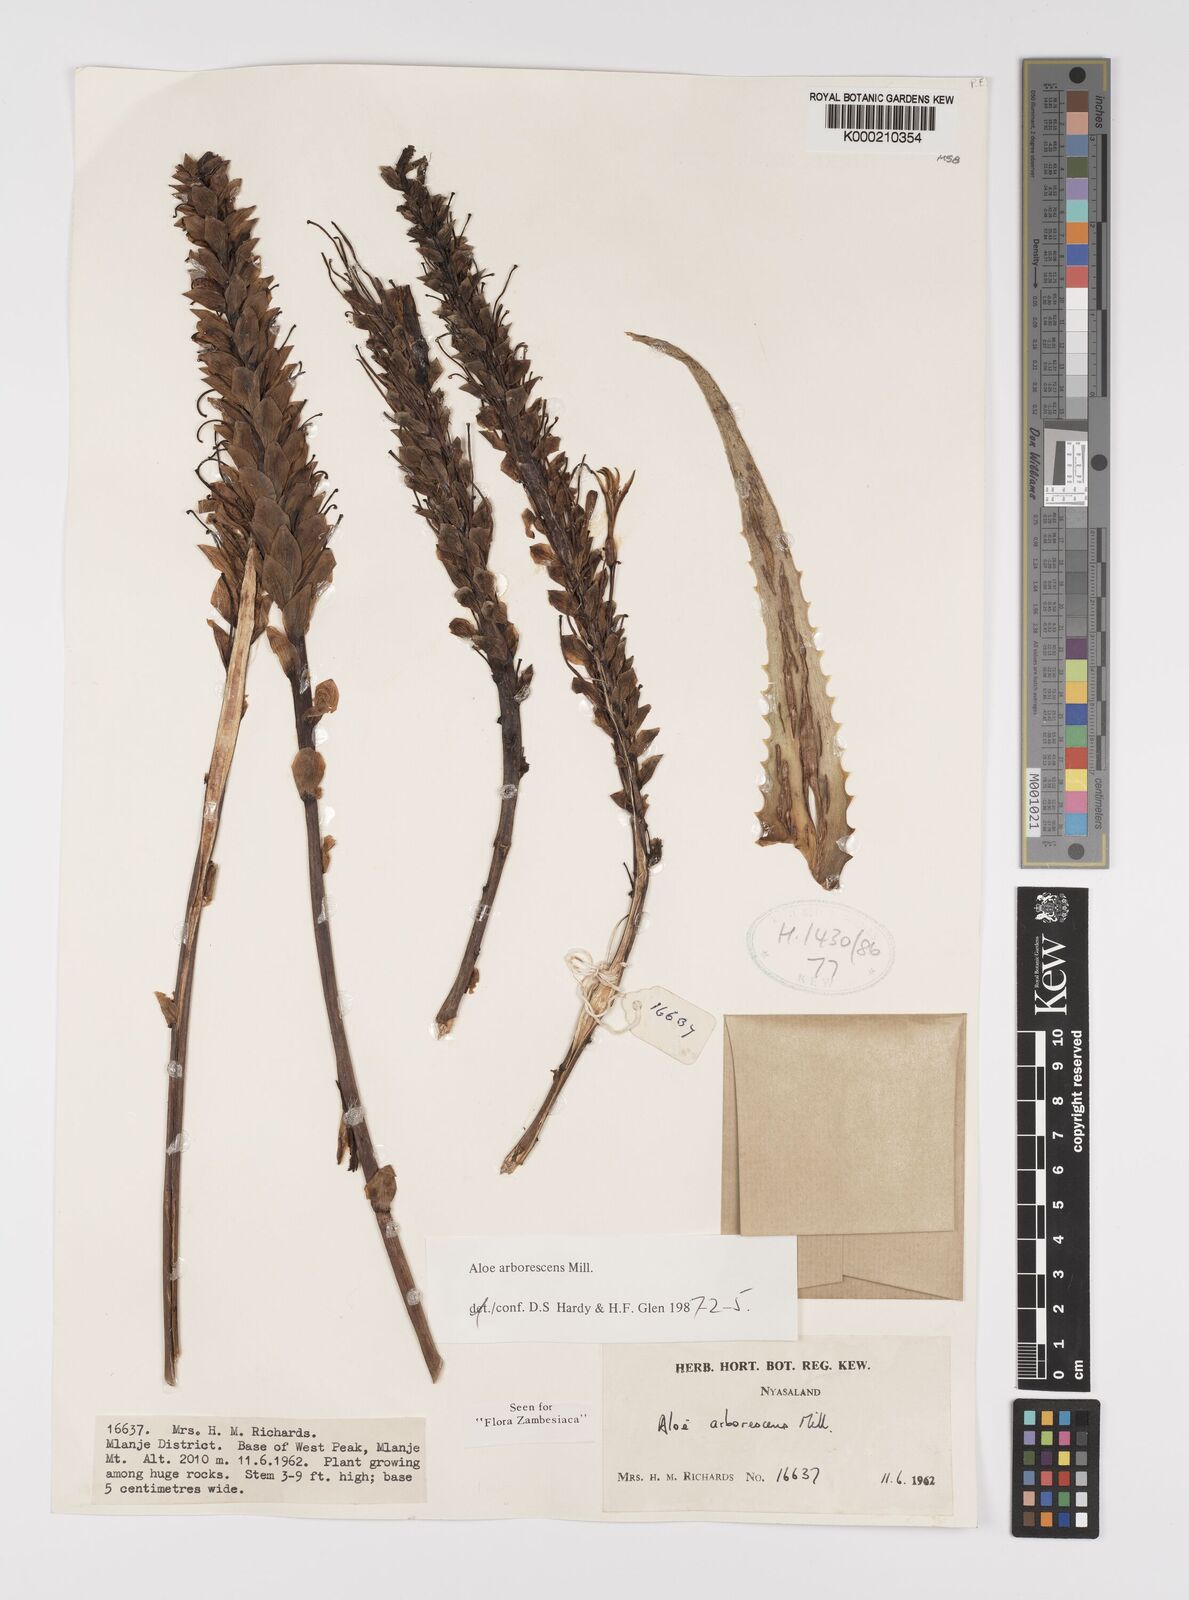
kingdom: Plantae
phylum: Tracheophyta
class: Liliopsida
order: Asparagales
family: Asphodelaceae
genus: Aloe
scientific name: Aloe arborescens
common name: Candelabra aloe
